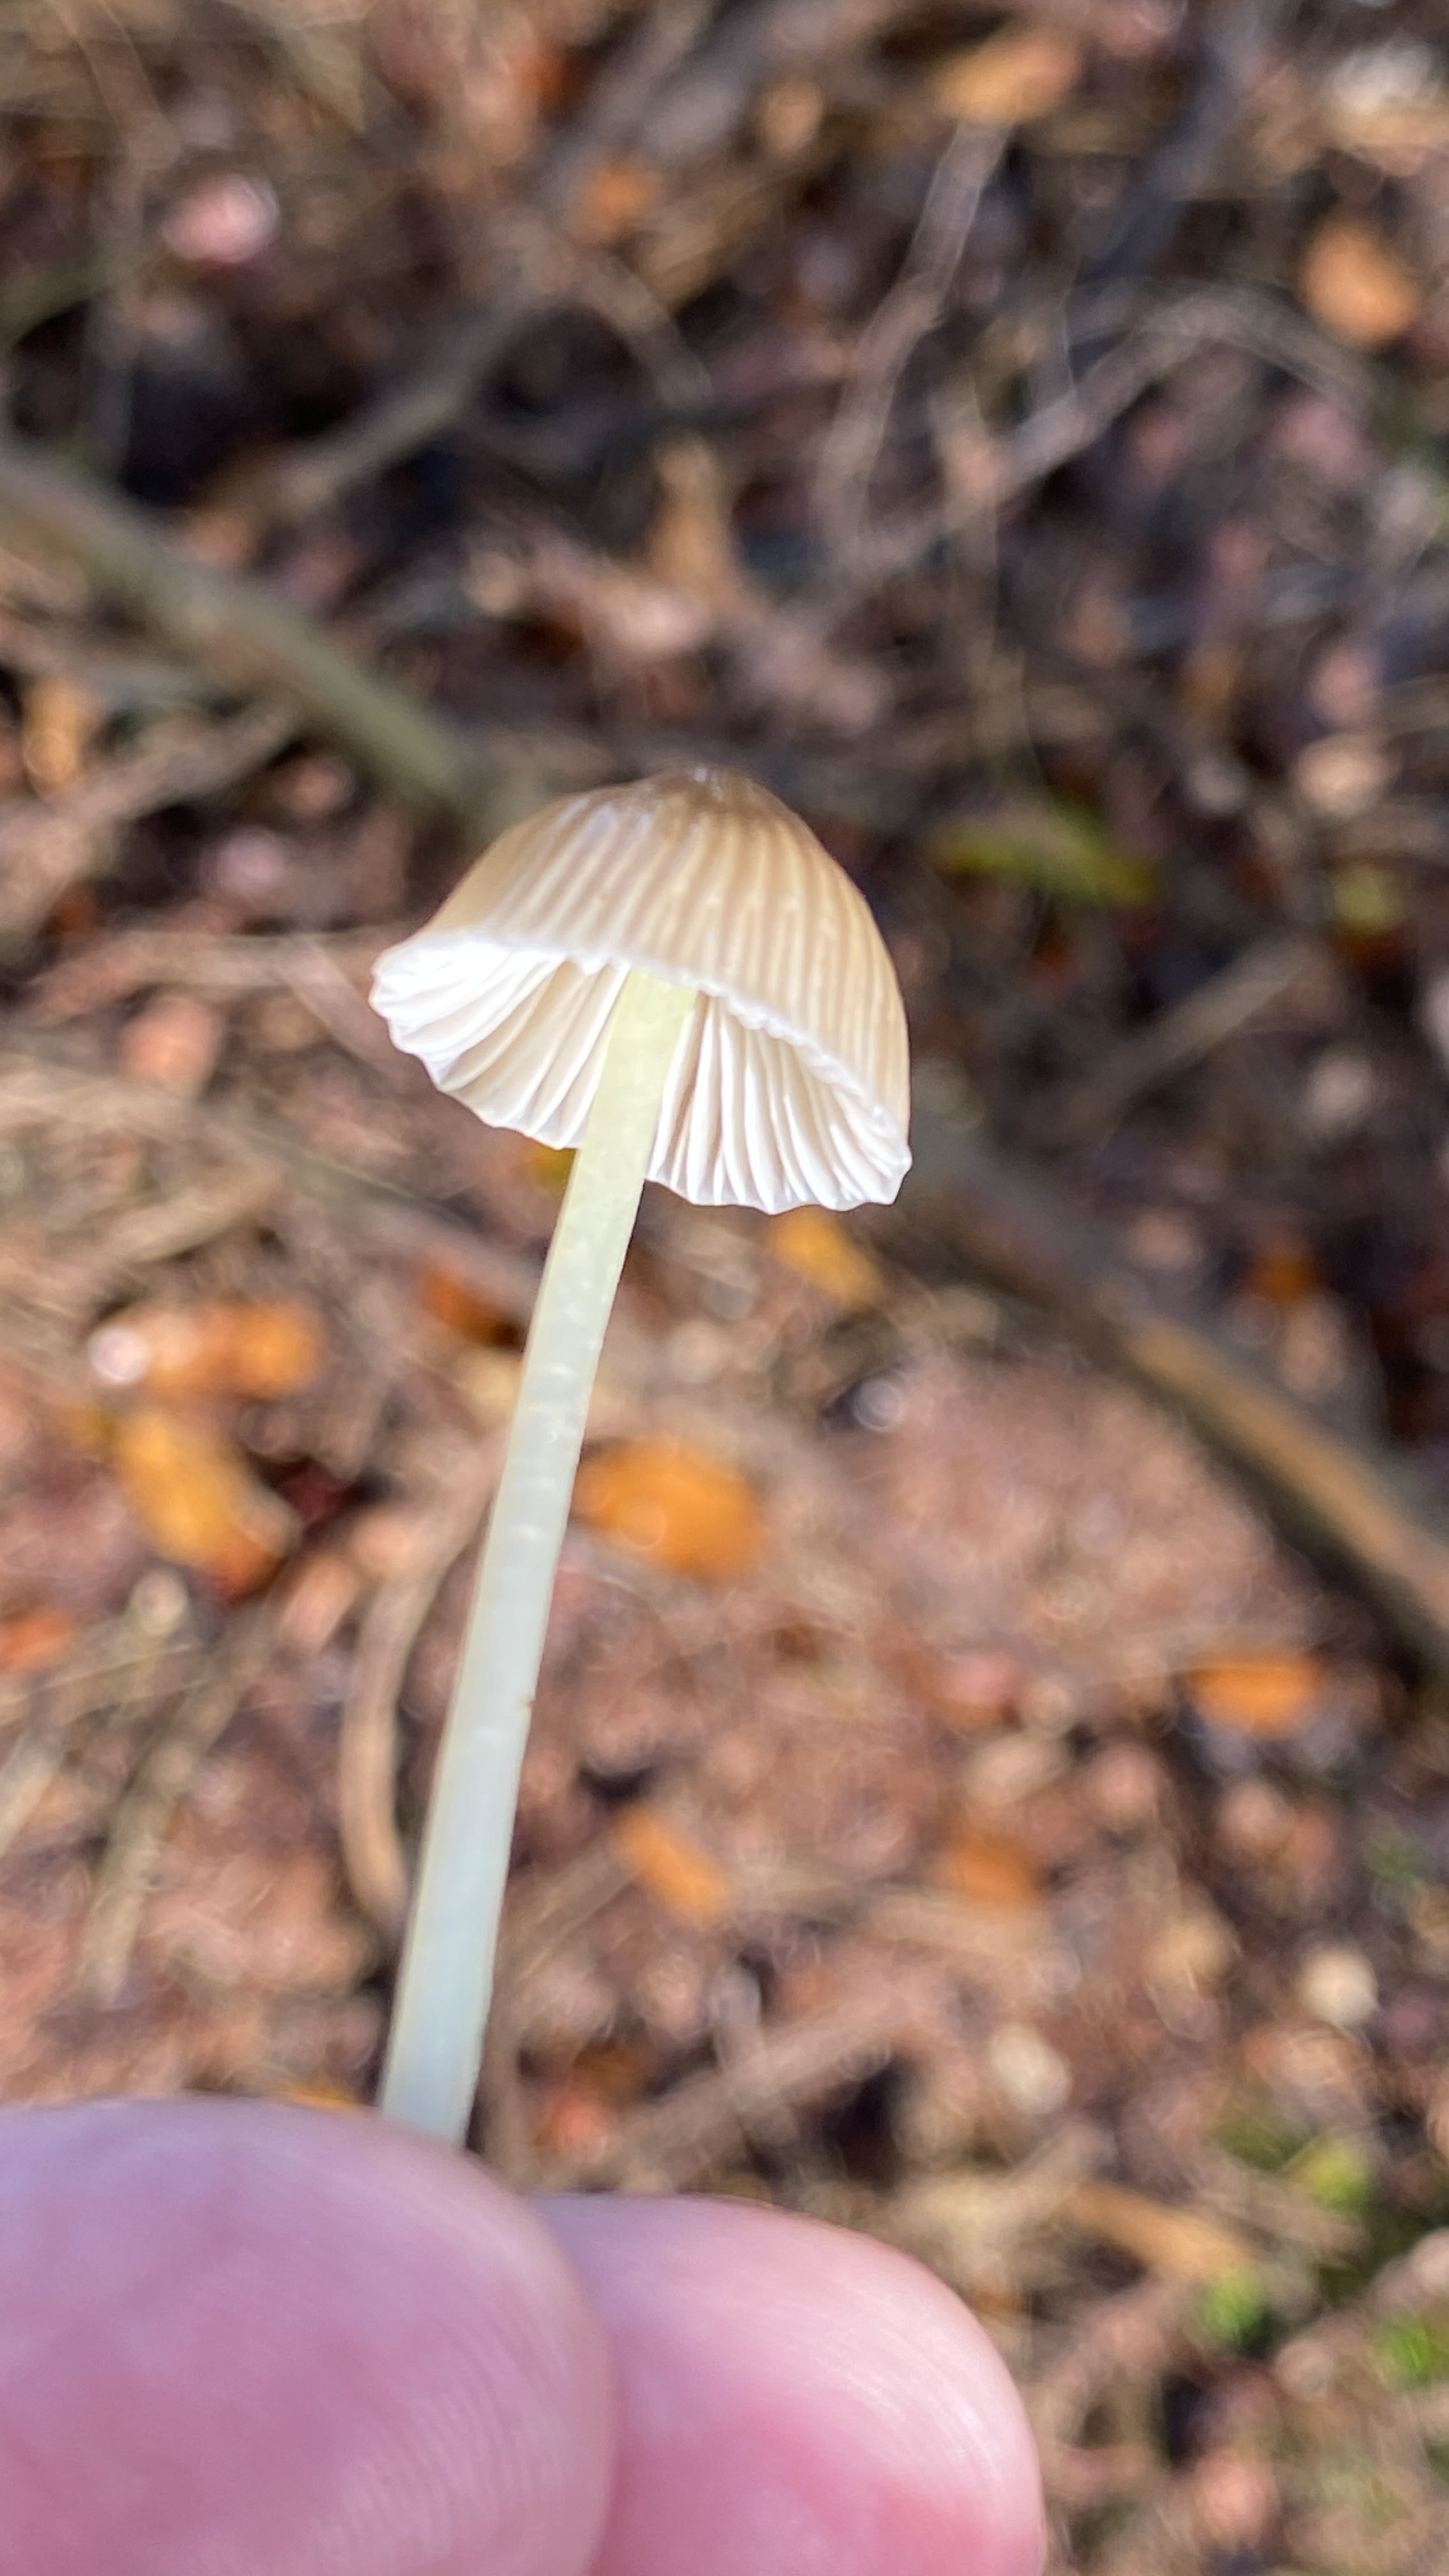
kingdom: Fungi
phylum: Basidiomycota
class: Agaricomycetes
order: Agaricales
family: Mycenaceae
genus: Mycena
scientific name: Mycena epipterygia
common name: gulstokket huesvamp
